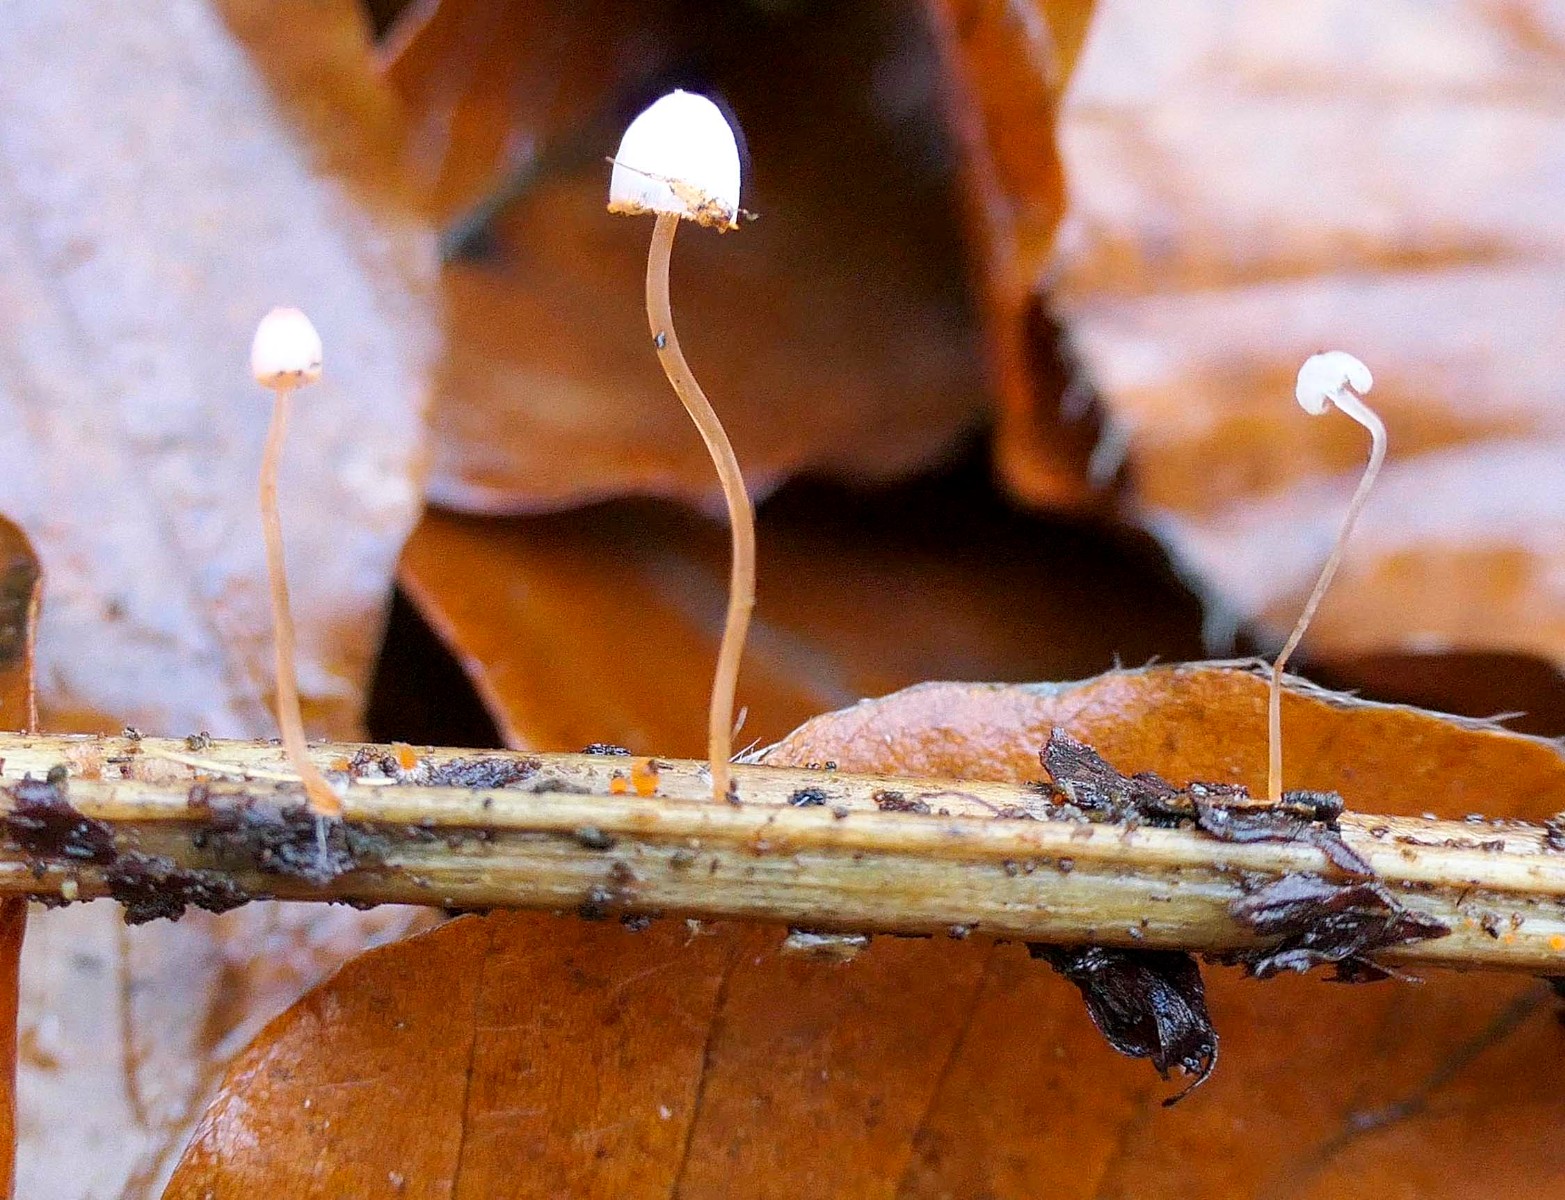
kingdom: Fungi
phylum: Basidiomycota
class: Agaricomycetes
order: Agaricales
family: Mycenaceae
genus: Mycena
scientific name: Mycena pterigena
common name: bregne-huesvamp
